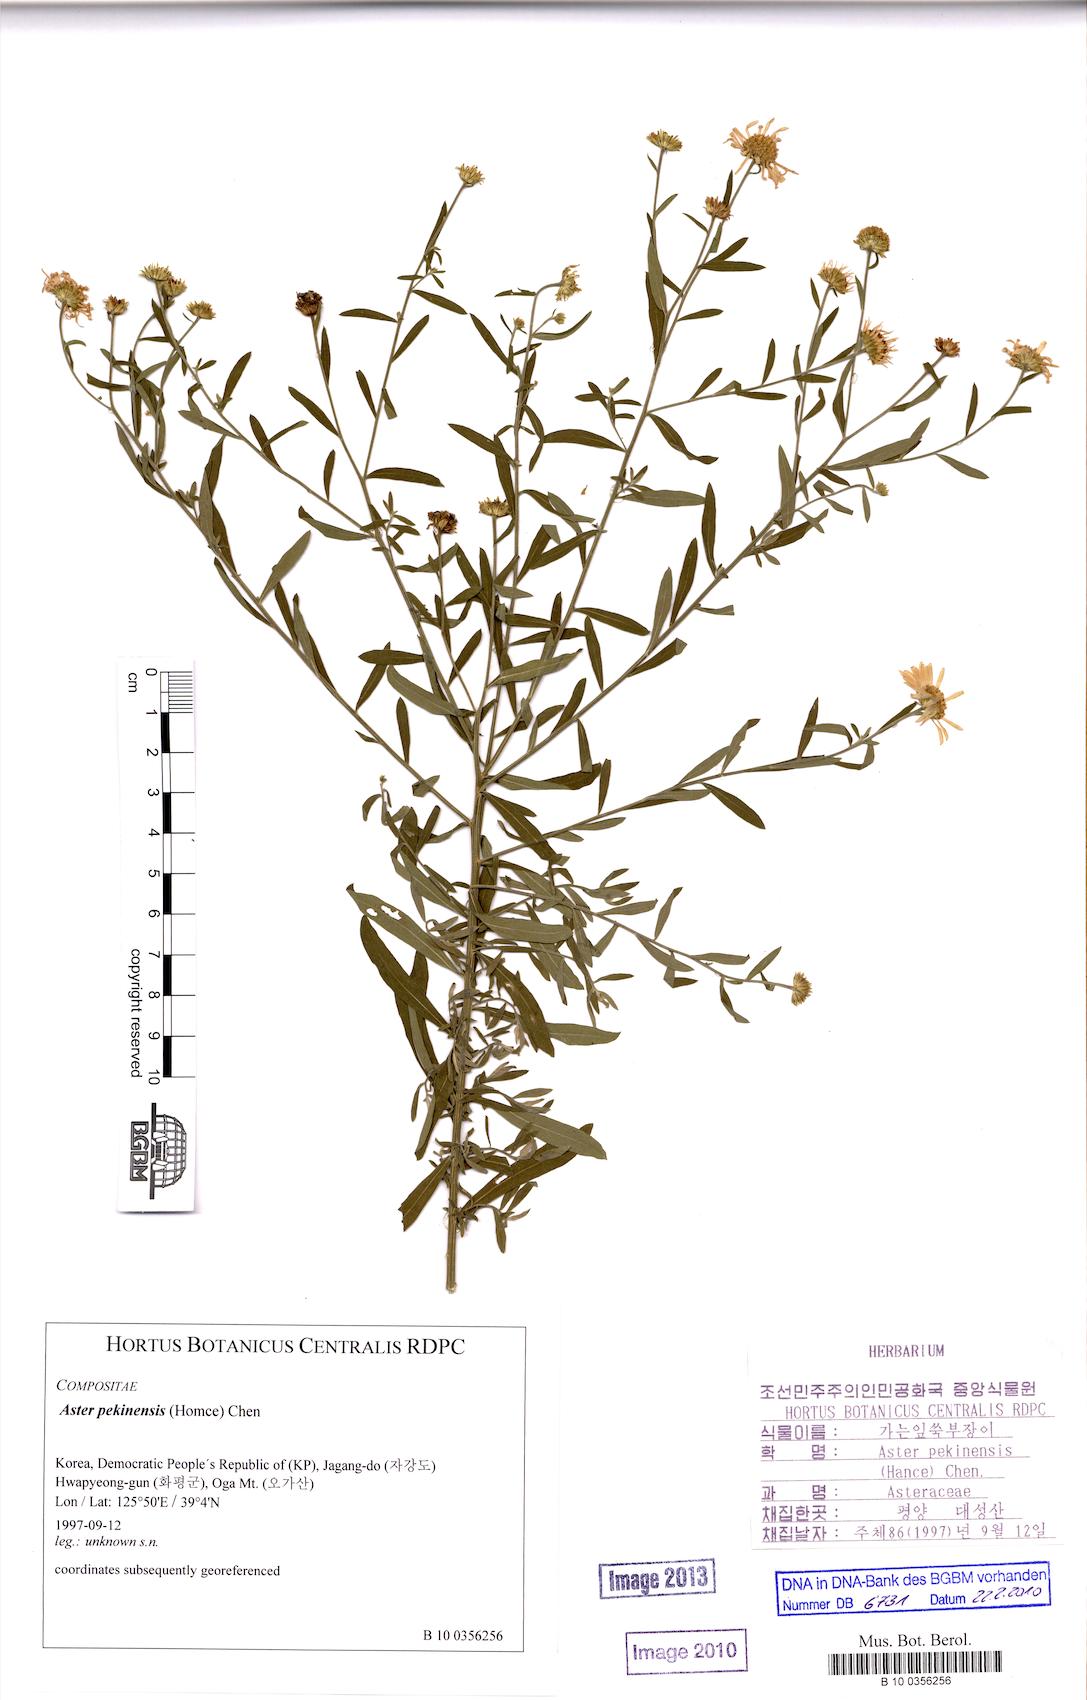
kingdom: Plantae
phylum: Tracheophyta
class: Magnoliopsida
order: Asterales
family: Asteraceae
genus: Kalimeris
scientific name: Kalimeris integrifolia
